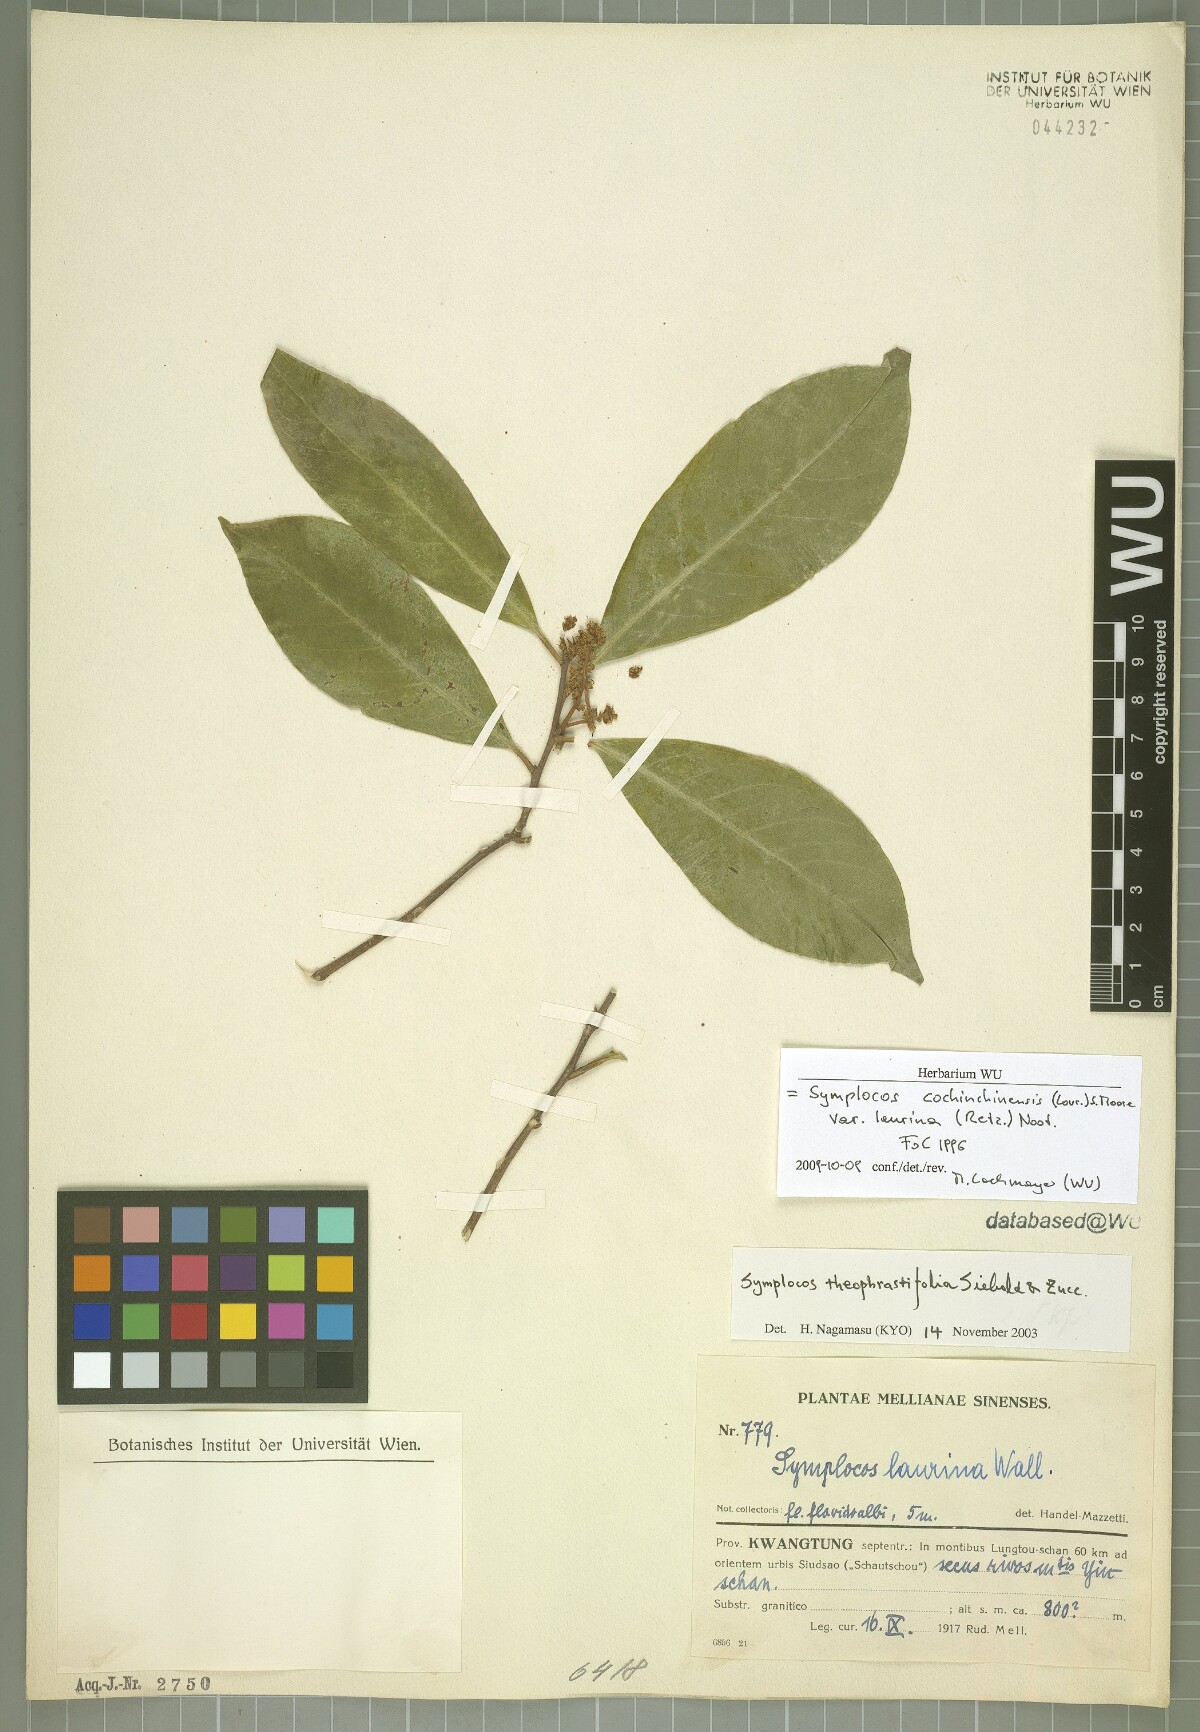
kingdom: Plantae
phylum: Tracheophyta
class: Magnoliopsida
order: Ericales
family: Symplocaceae
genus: Symplocos
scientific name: Symplocos acuminata
